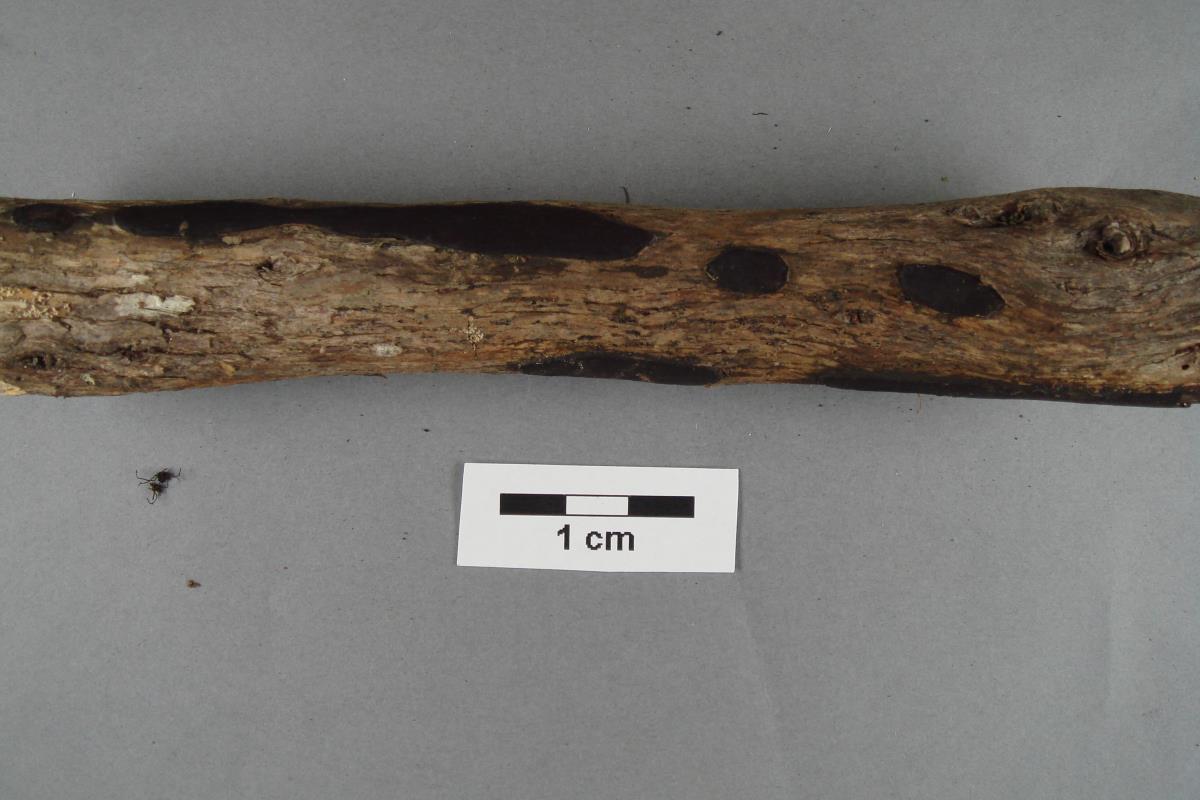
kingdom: Fungi
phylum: Ascomycota
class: Sordariomycetes
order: Xylariales
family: Graphostromataceae
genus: Biscogniauxia
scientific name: Biscogniauxia capnodes
